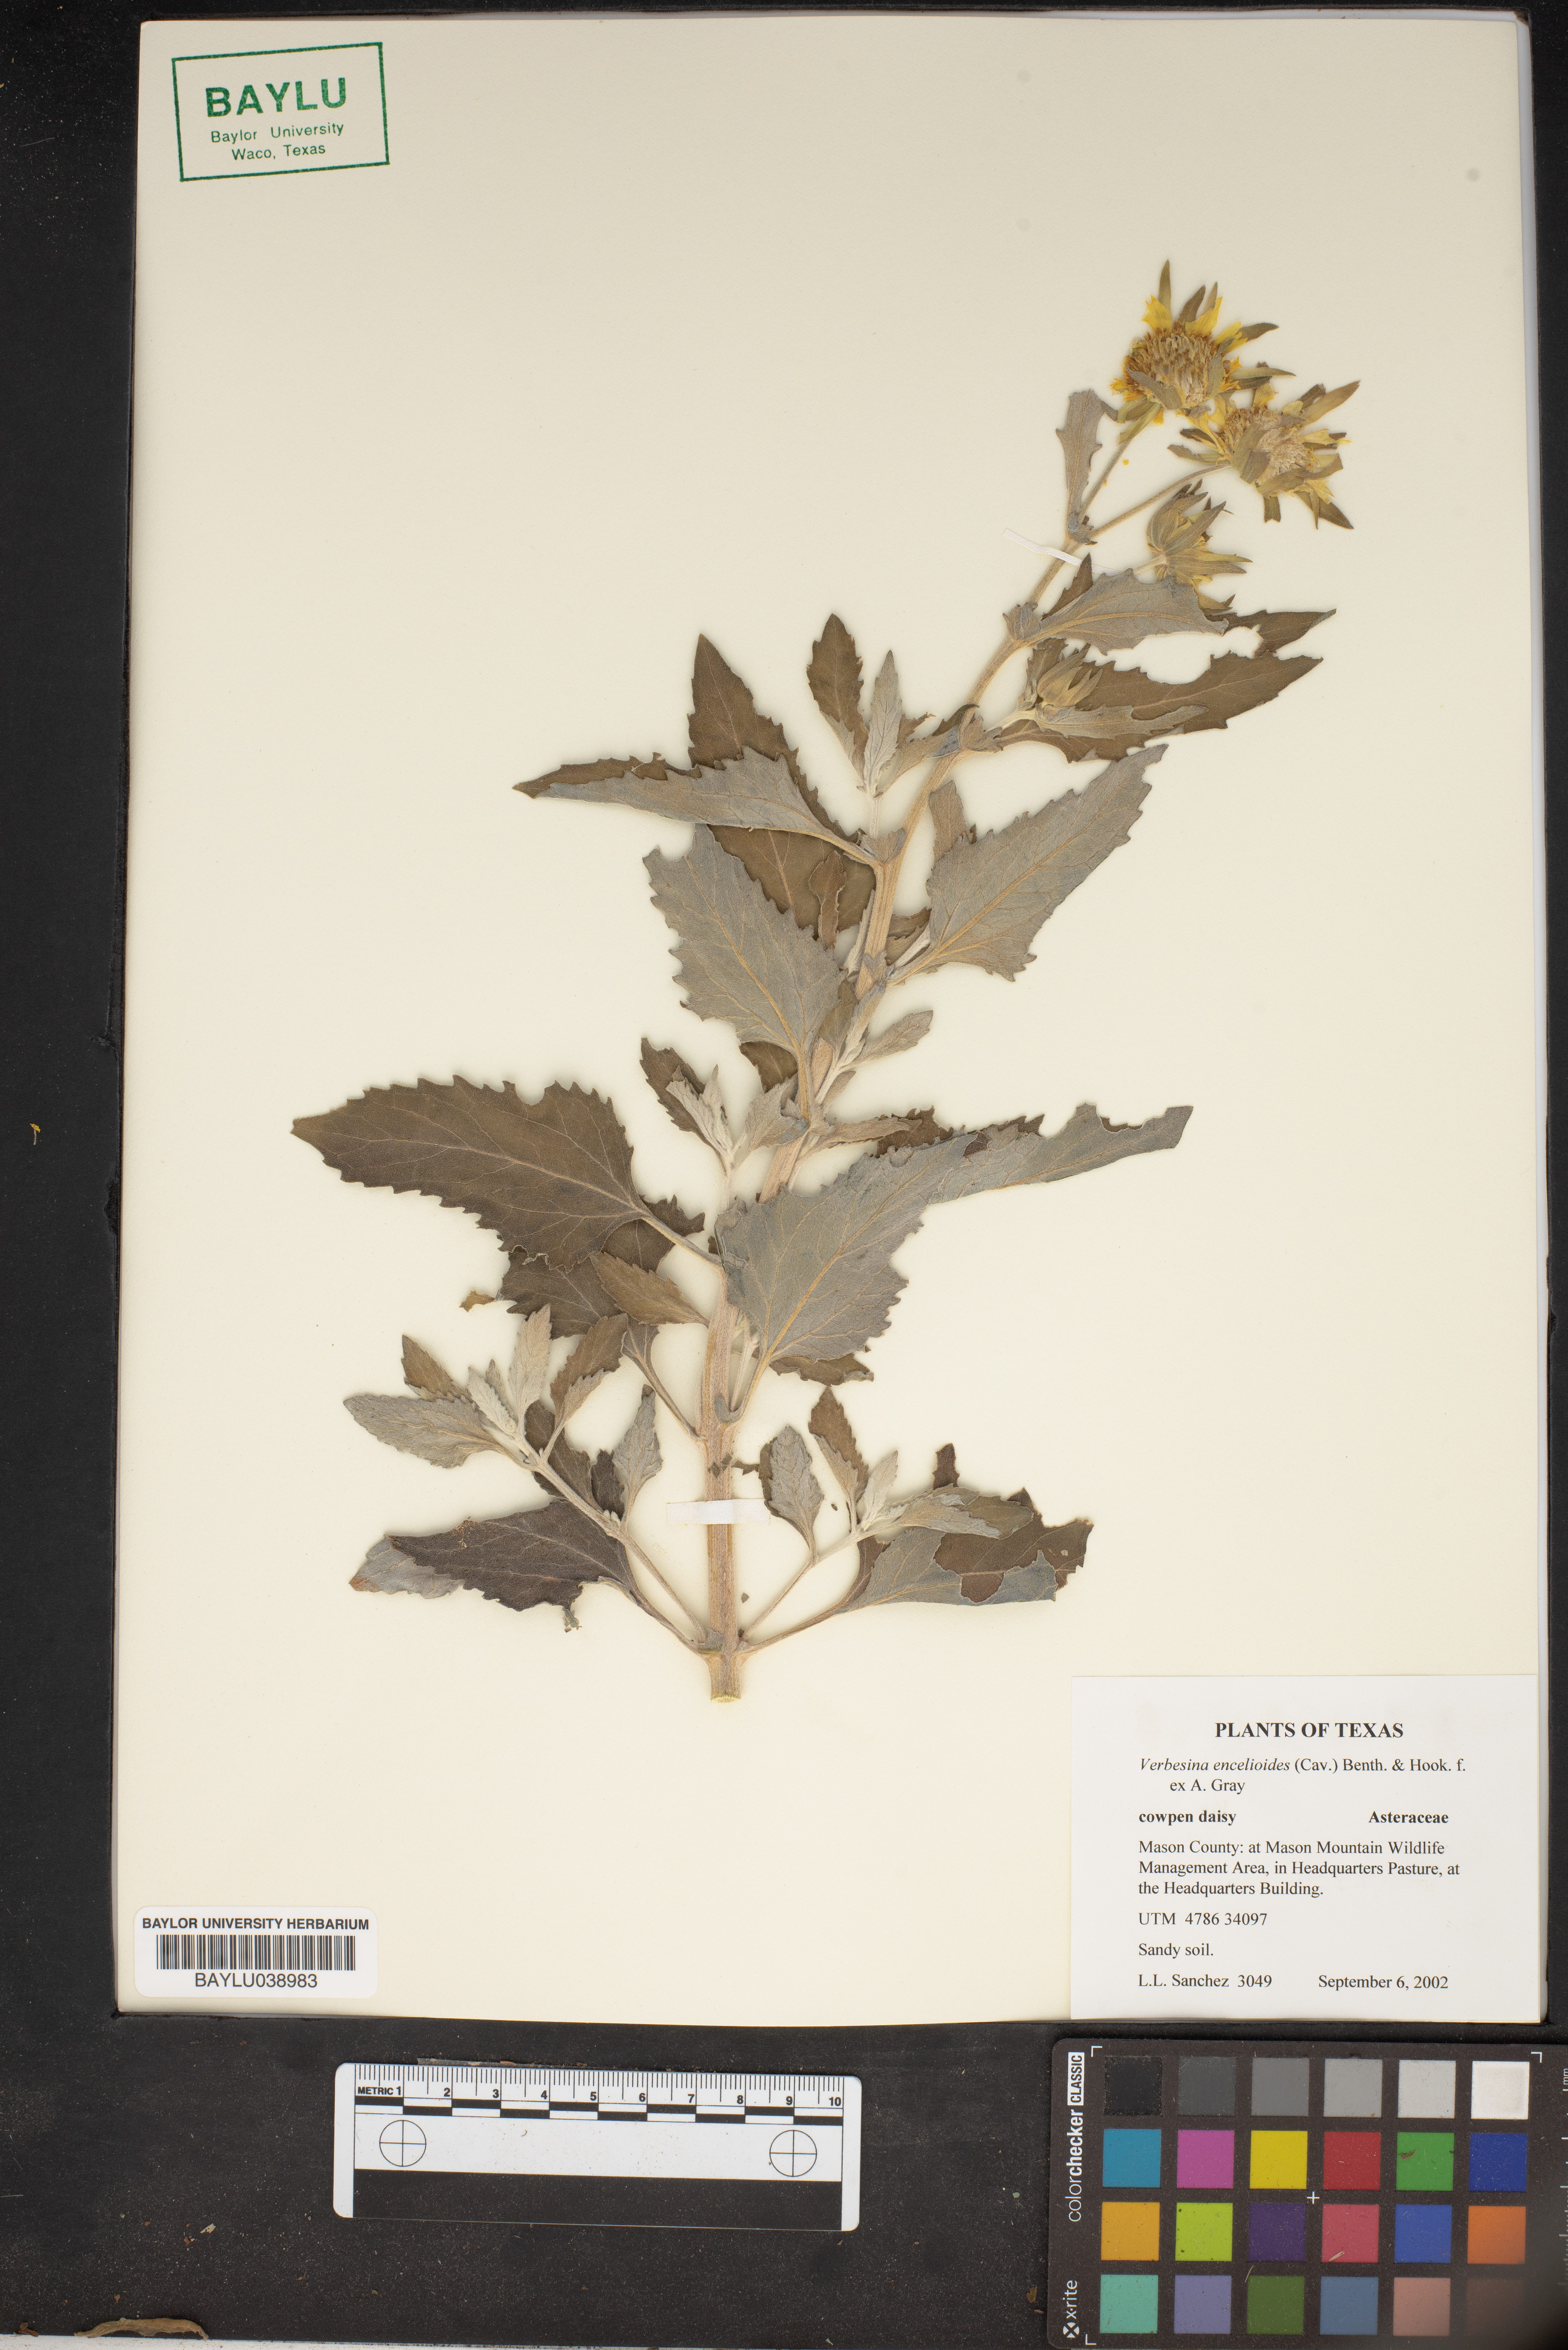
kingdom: Plantae
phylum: Tracheophyta
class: Magnoliopsida
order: Asterales
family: Asteraceae
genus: Verbesina
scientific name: Verbesina encelioides
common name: Golden crownbeard
